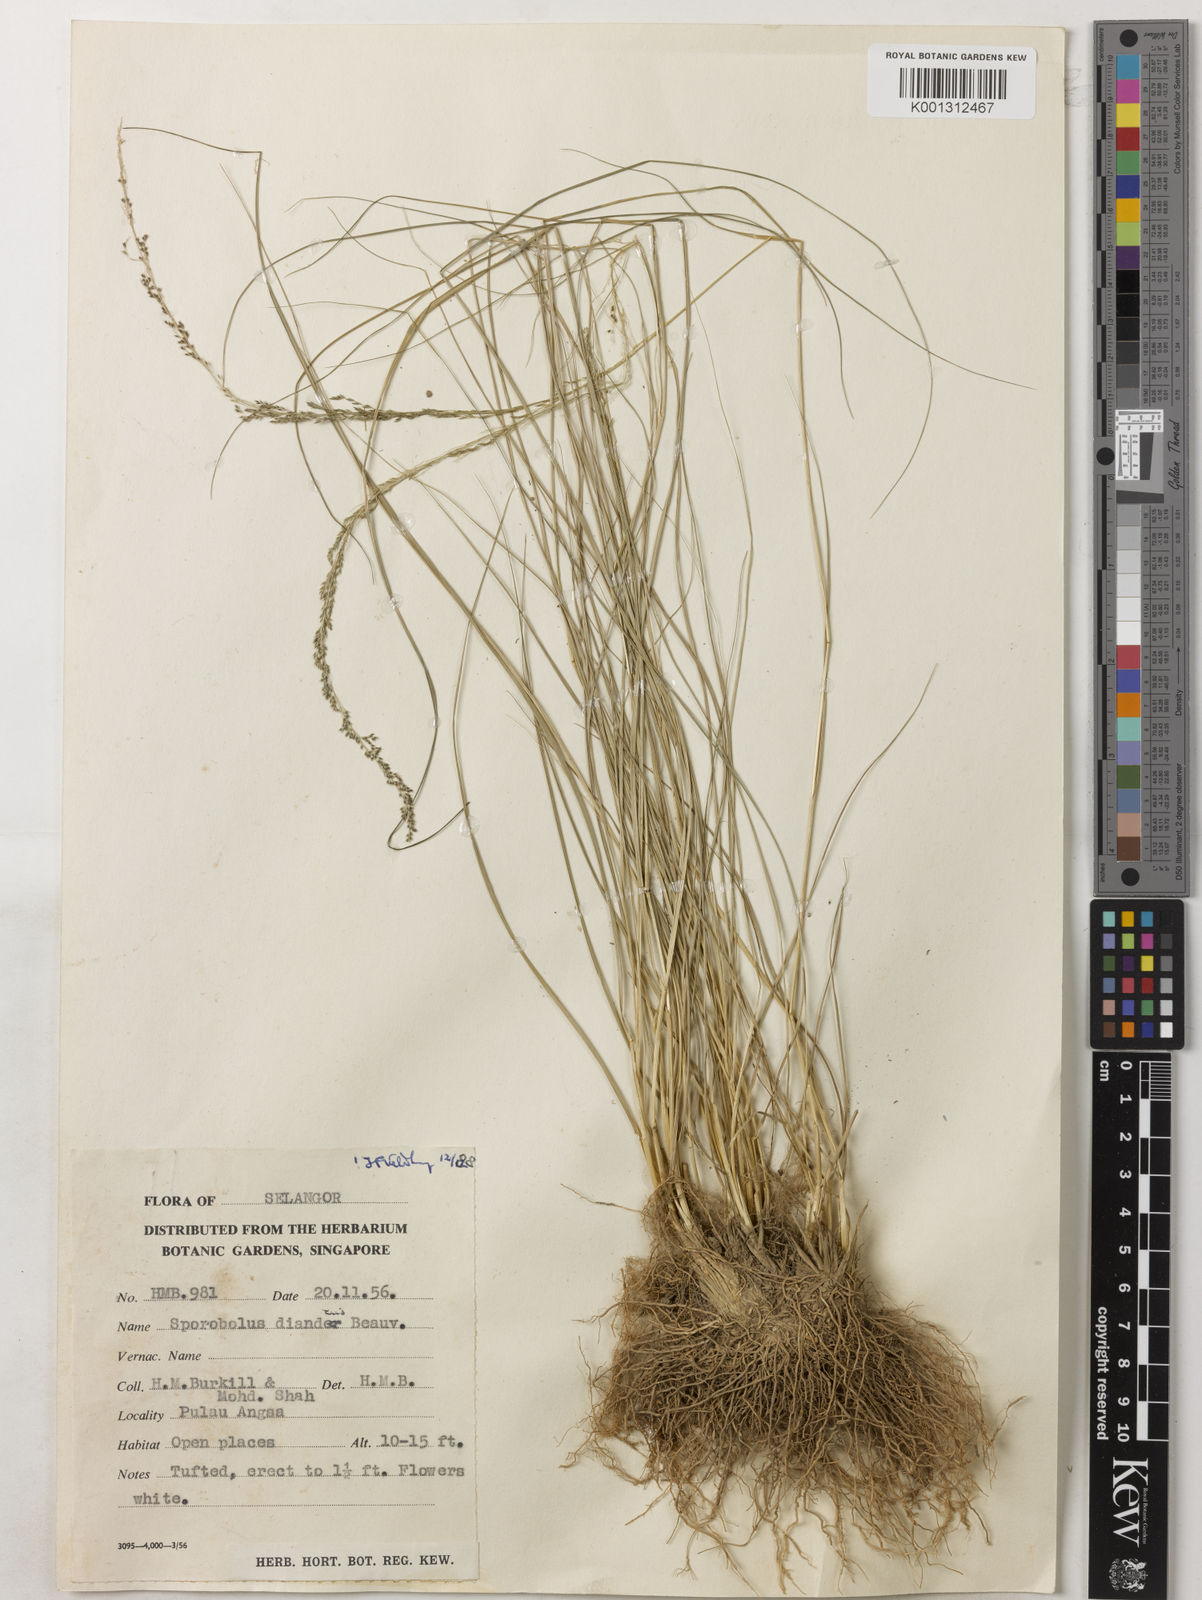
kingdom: Plantae
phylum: Tracheophyta
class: Liliopsida
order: Poales
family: Poaceae
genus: Sporobolus
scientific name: Sporobolus diandrus
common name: Tussock dropseed
